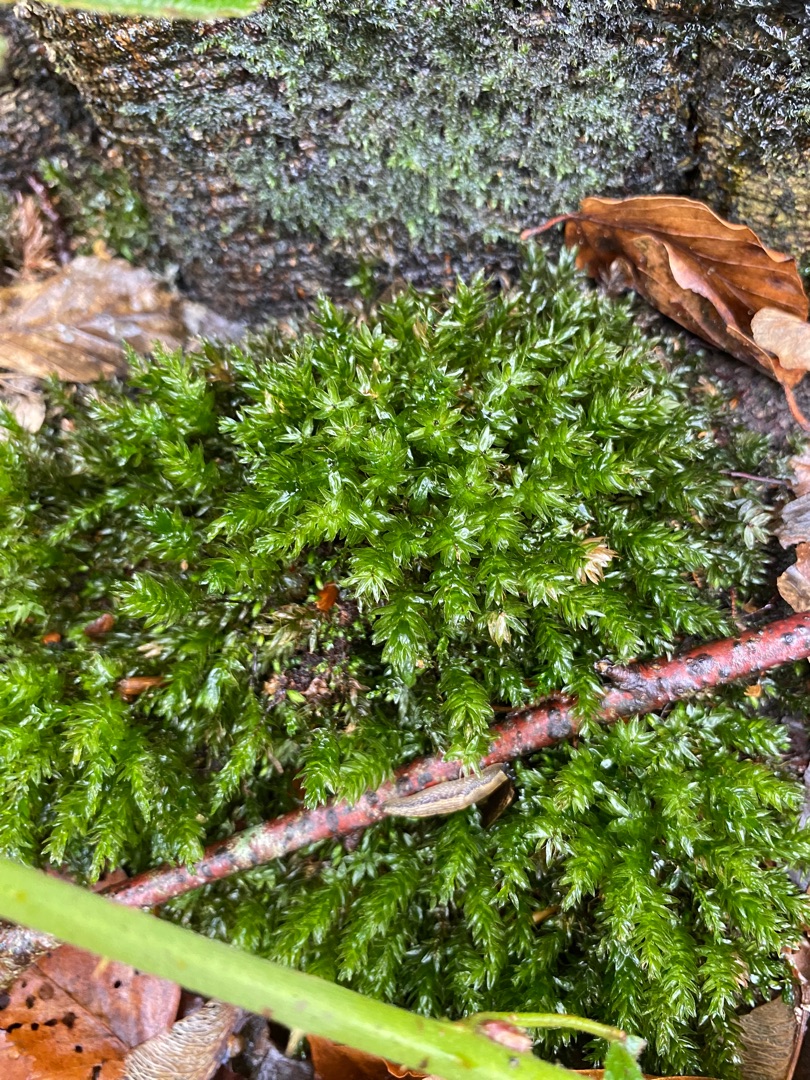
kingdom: Plantae
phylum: Bryophyta
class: Bryopsida
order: Bryales
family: Mniaceae
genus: Mnium
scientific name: Mnium hornum
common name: Brunfiltet stjernemos
